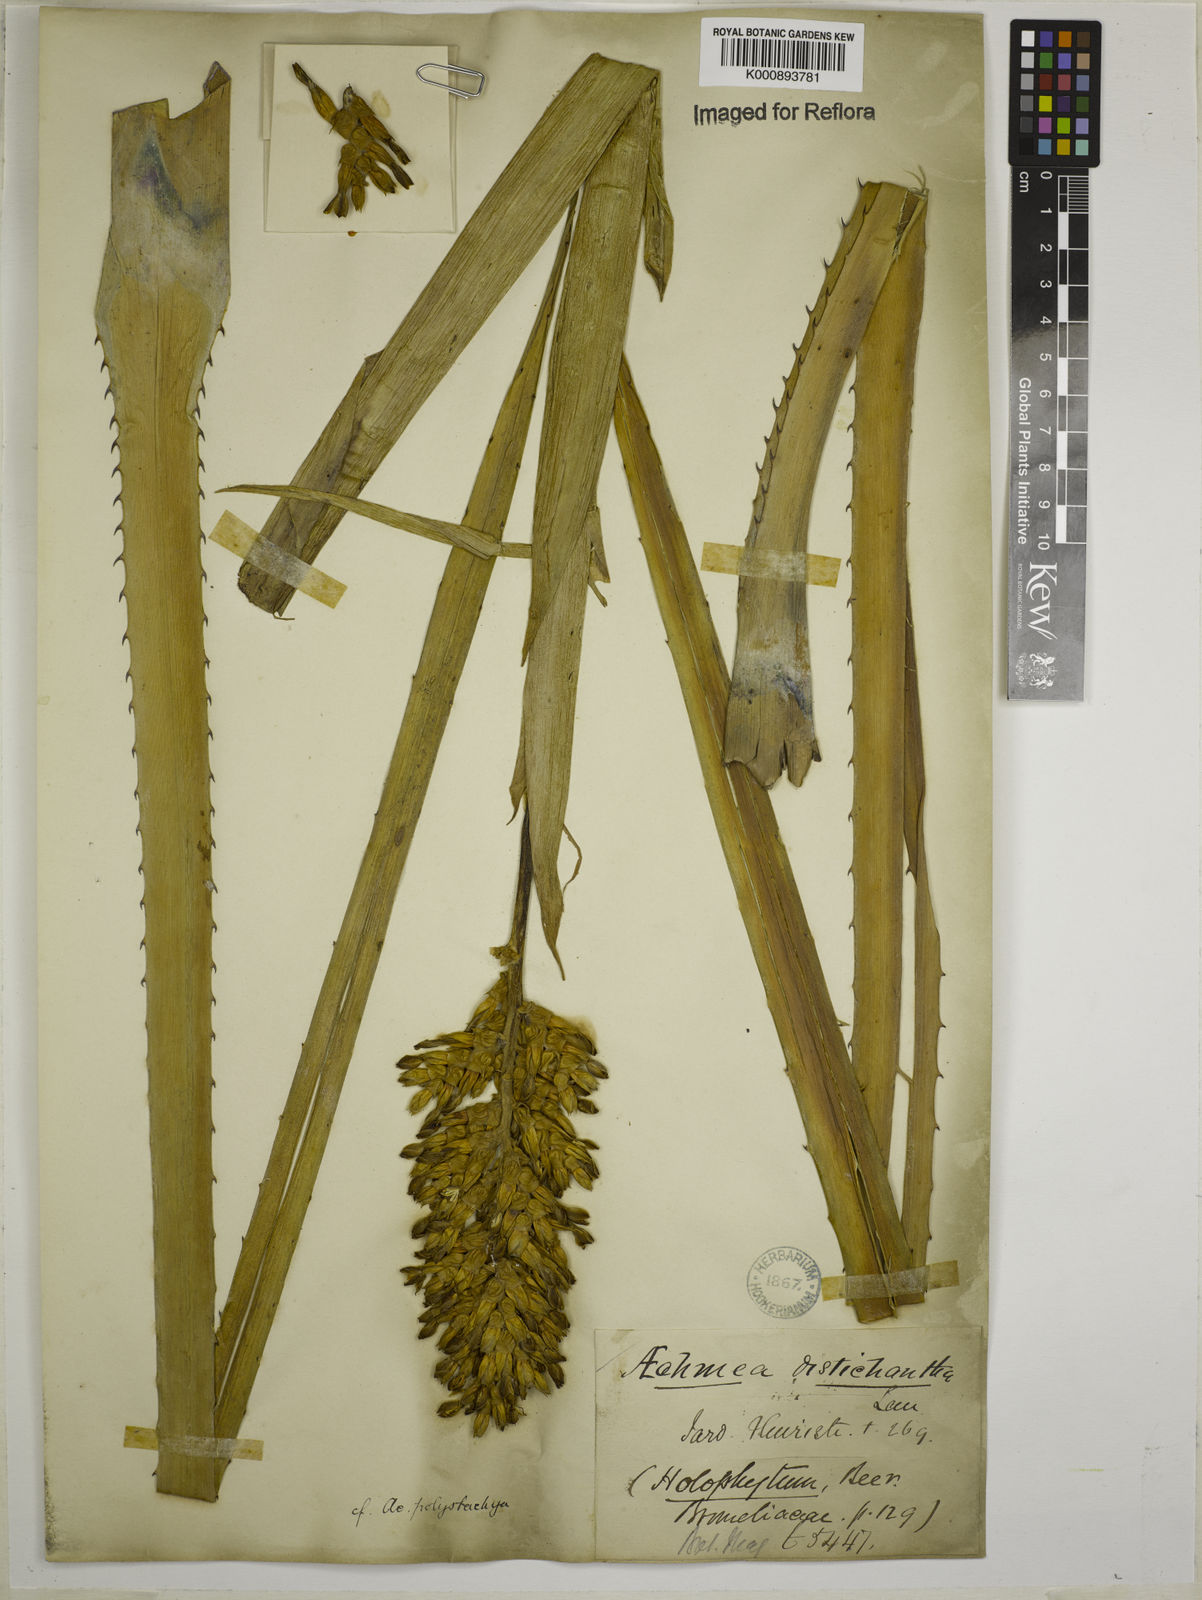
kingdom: Plantae
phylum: Tracheophyta
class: Liliopsida
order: Poales
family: Bromeliaceae
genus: Aechmea
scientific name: Aechmea distichantha
